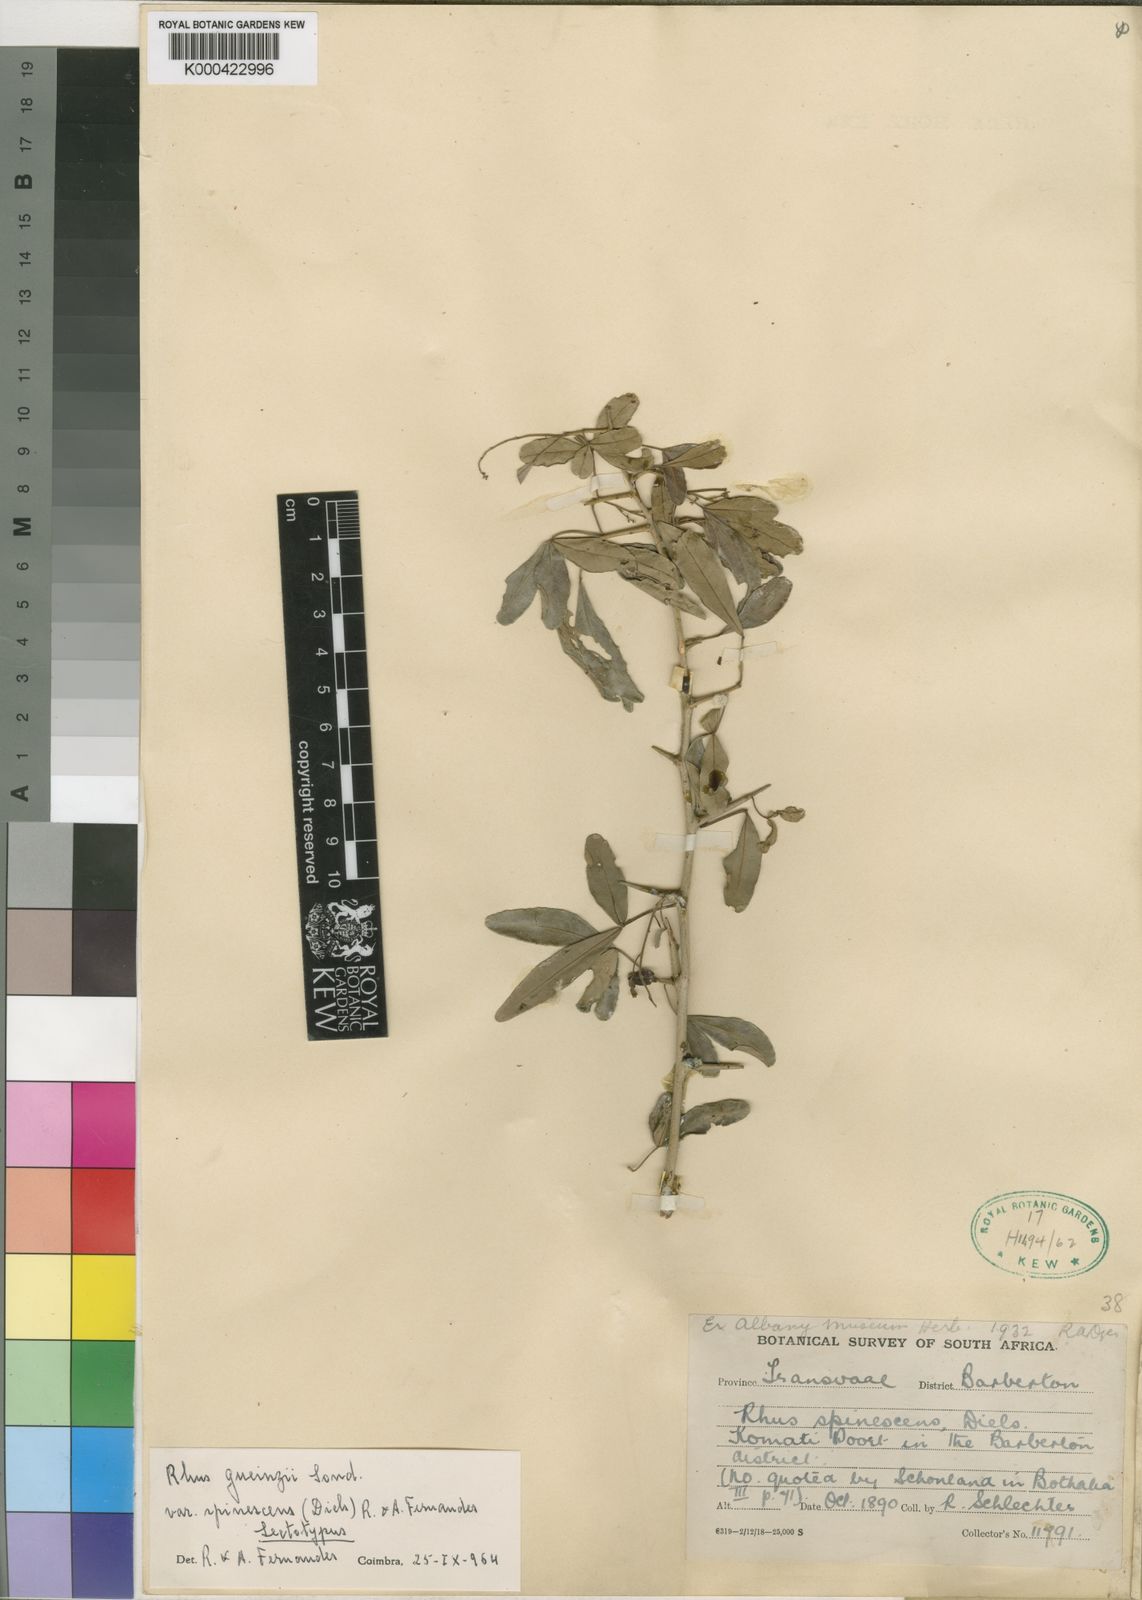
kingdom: Plantae
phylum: Tracheophyta
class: Magnoliopsida
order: Sapindales
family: Anacardiaceae
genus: Searsia
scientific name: Searsia gueinzii
